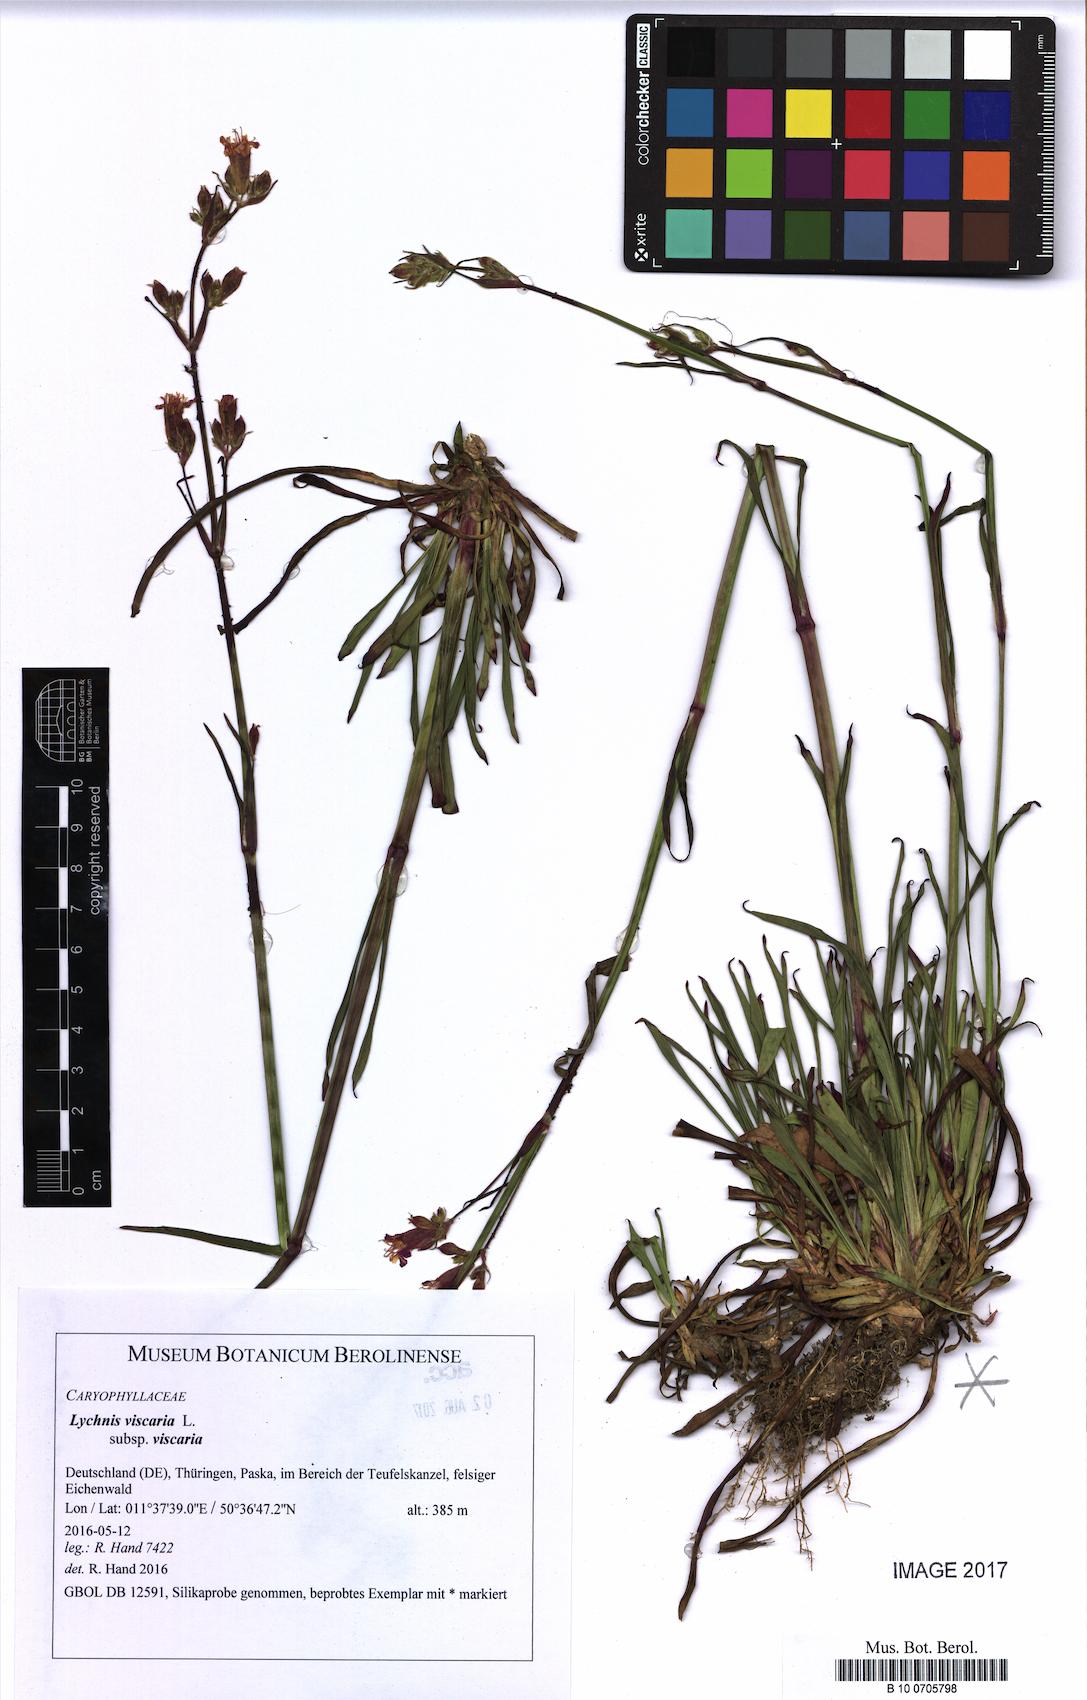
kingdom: Plantae
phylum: Tracheophyta
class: Magnoliopsida
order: Caryophyllales
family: Caryophyllaceae
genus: Viscaria
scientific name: Viscaria vulgaris
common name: Clammy campion
